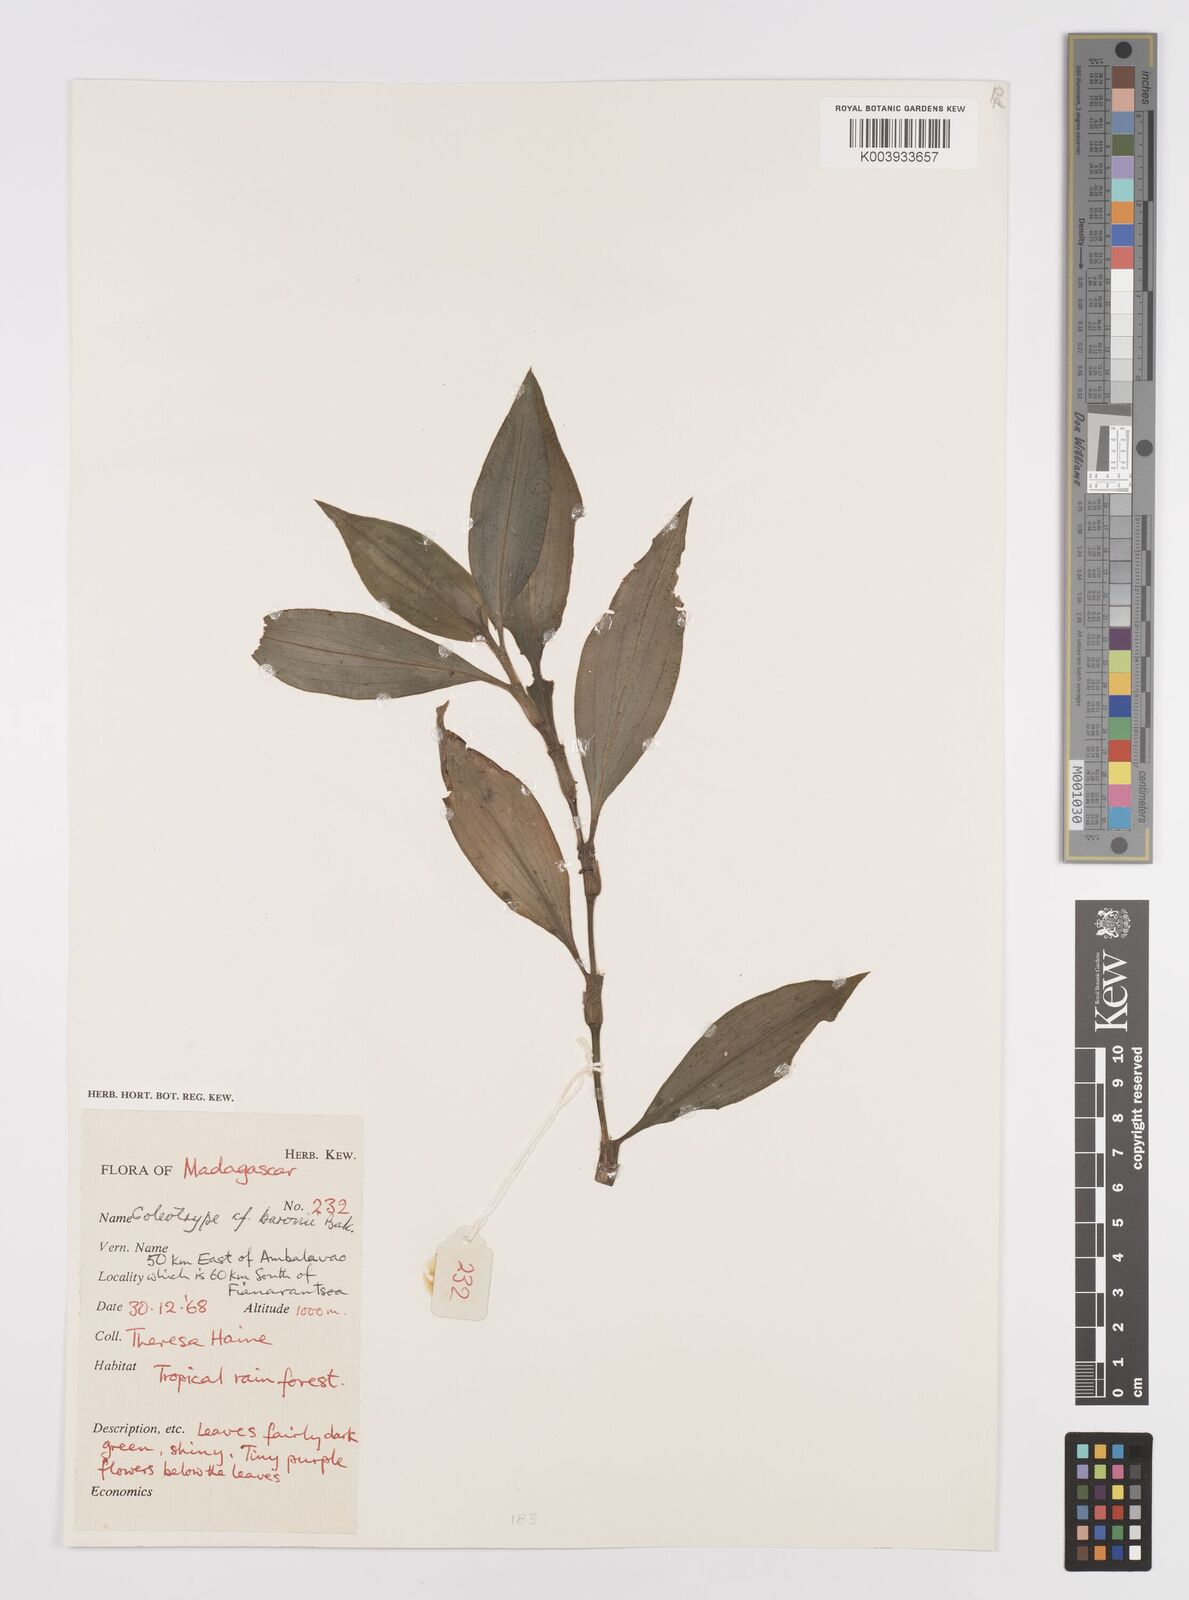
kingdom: Plantae
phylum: Tracheophyta
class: Liliopsida
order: Commelinales
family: Commelinaceae
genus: Coleotrype
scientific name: Coleotrype baronii
